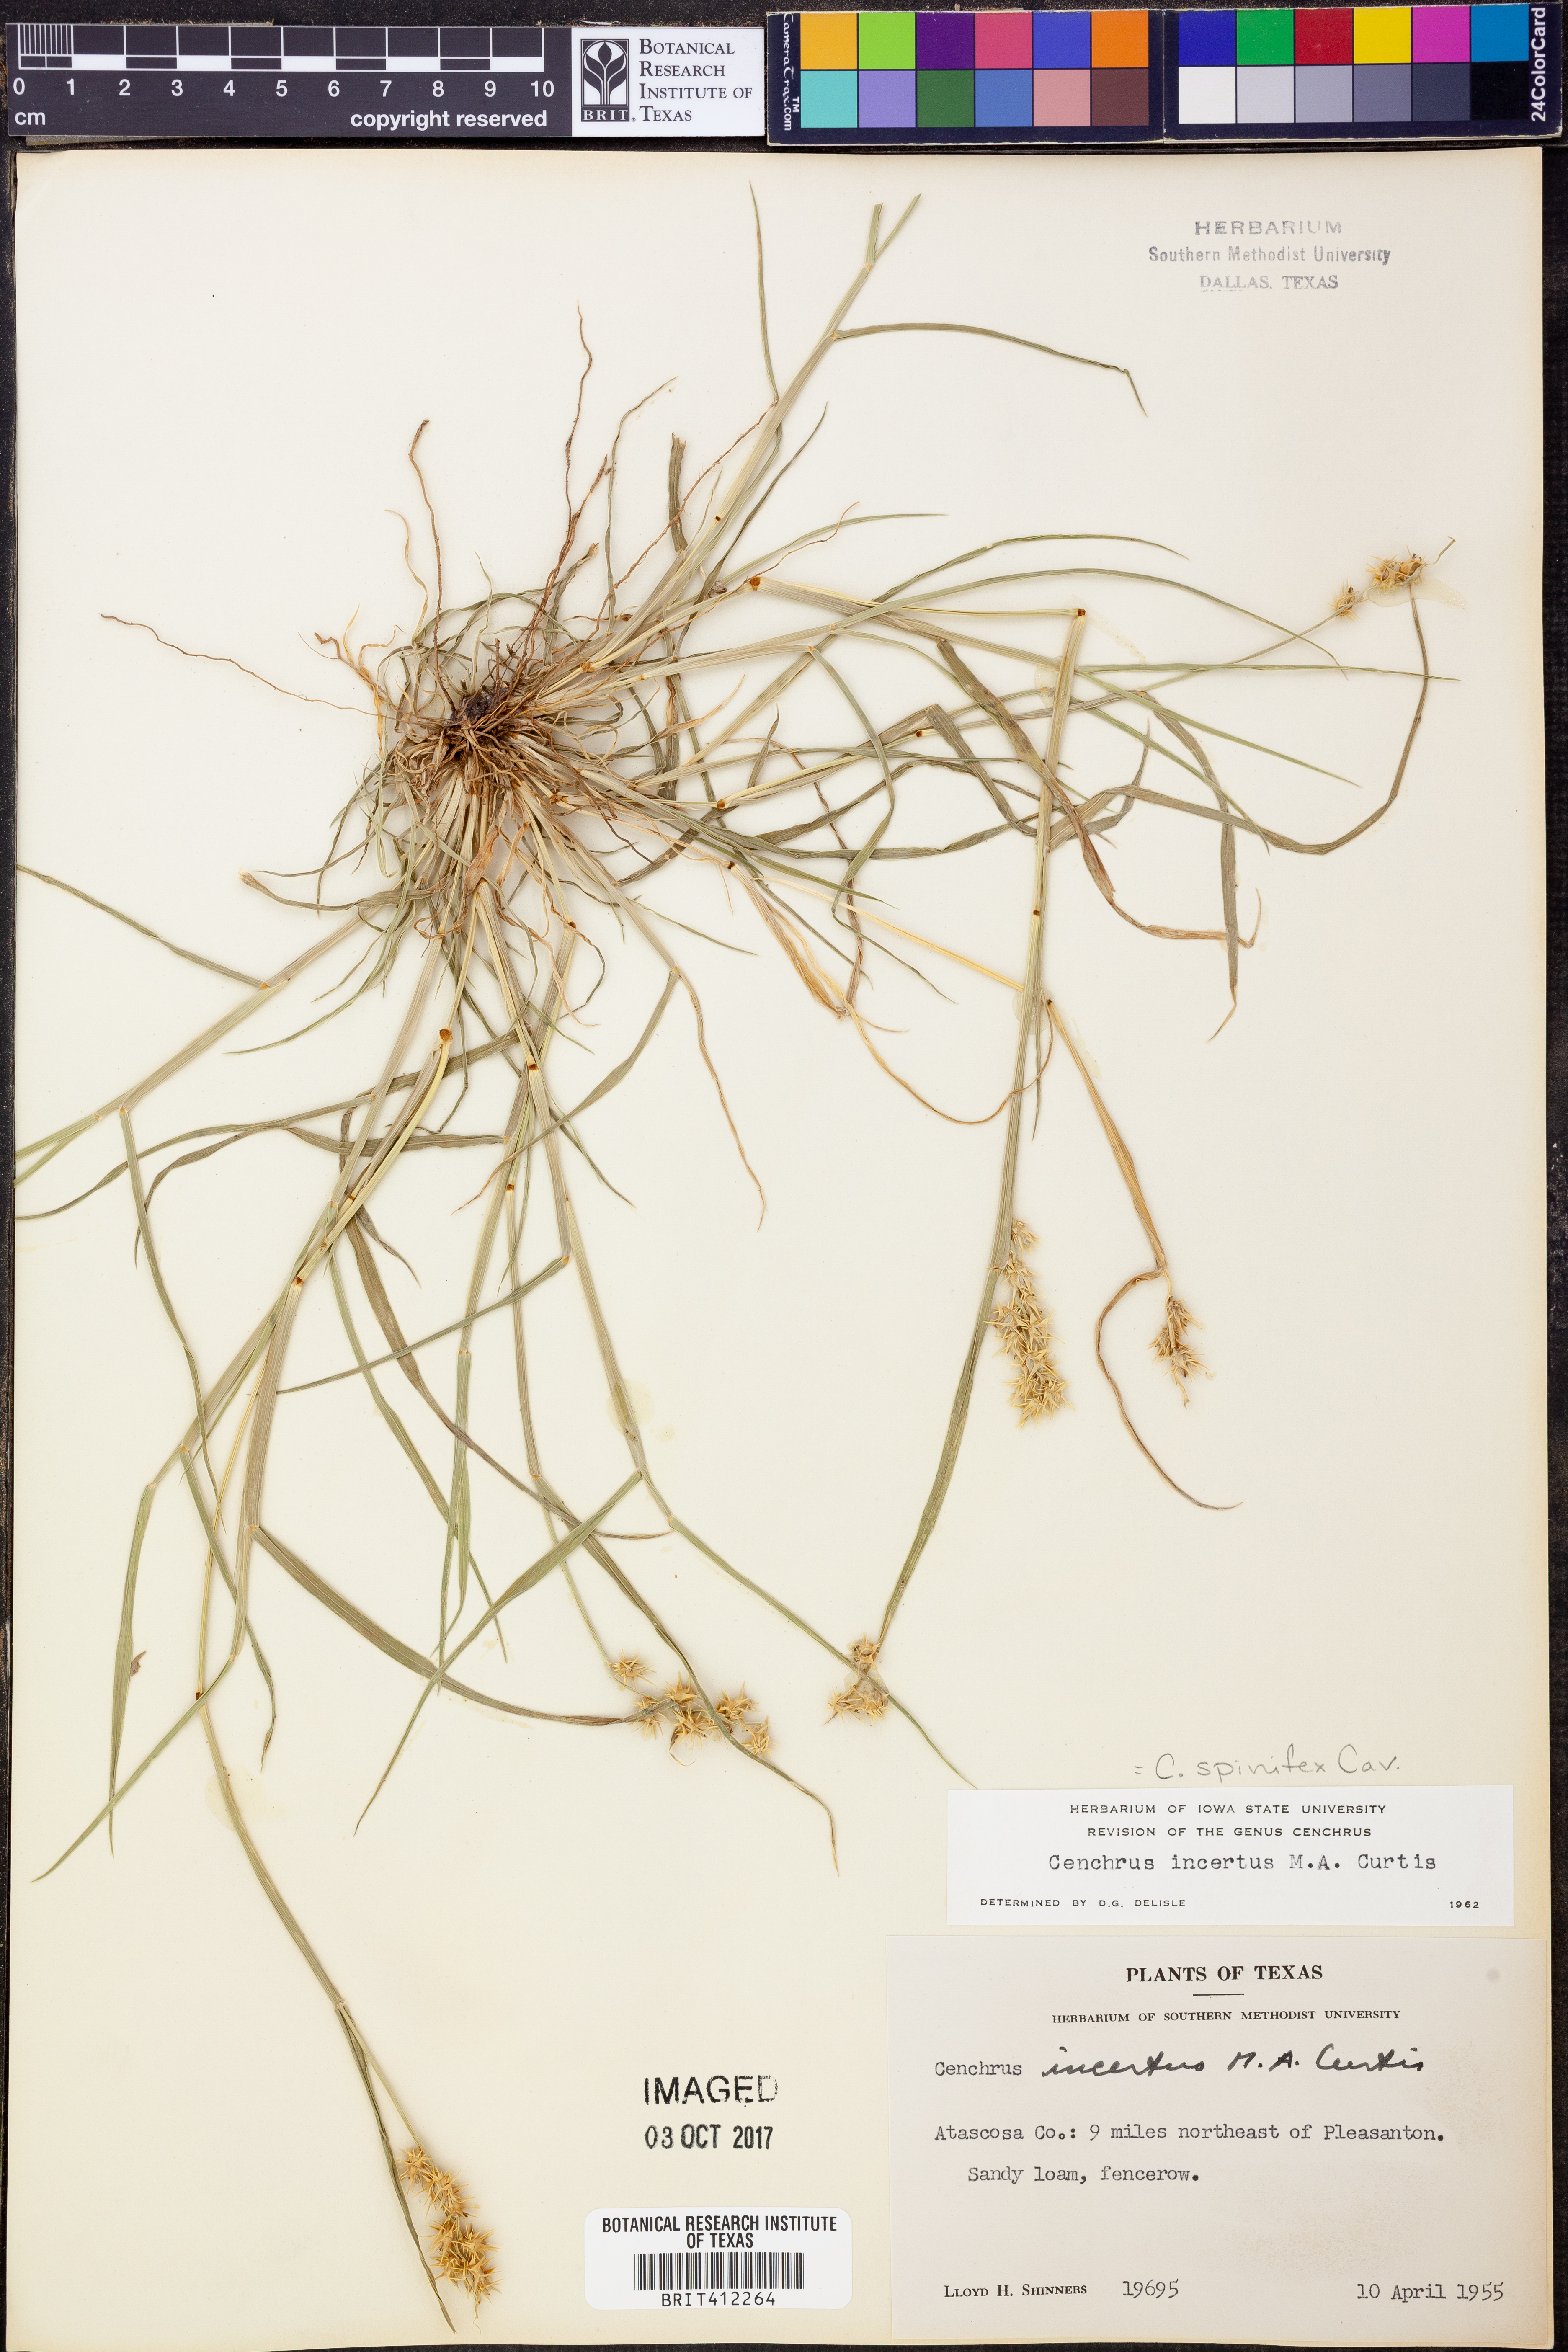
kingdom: Plantae
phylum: Tracheophyta
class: Liliopsida
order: Poales
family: Poaceae
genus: Cenchrus
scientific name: Cenchrus spinifex
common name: Coast sandbur
